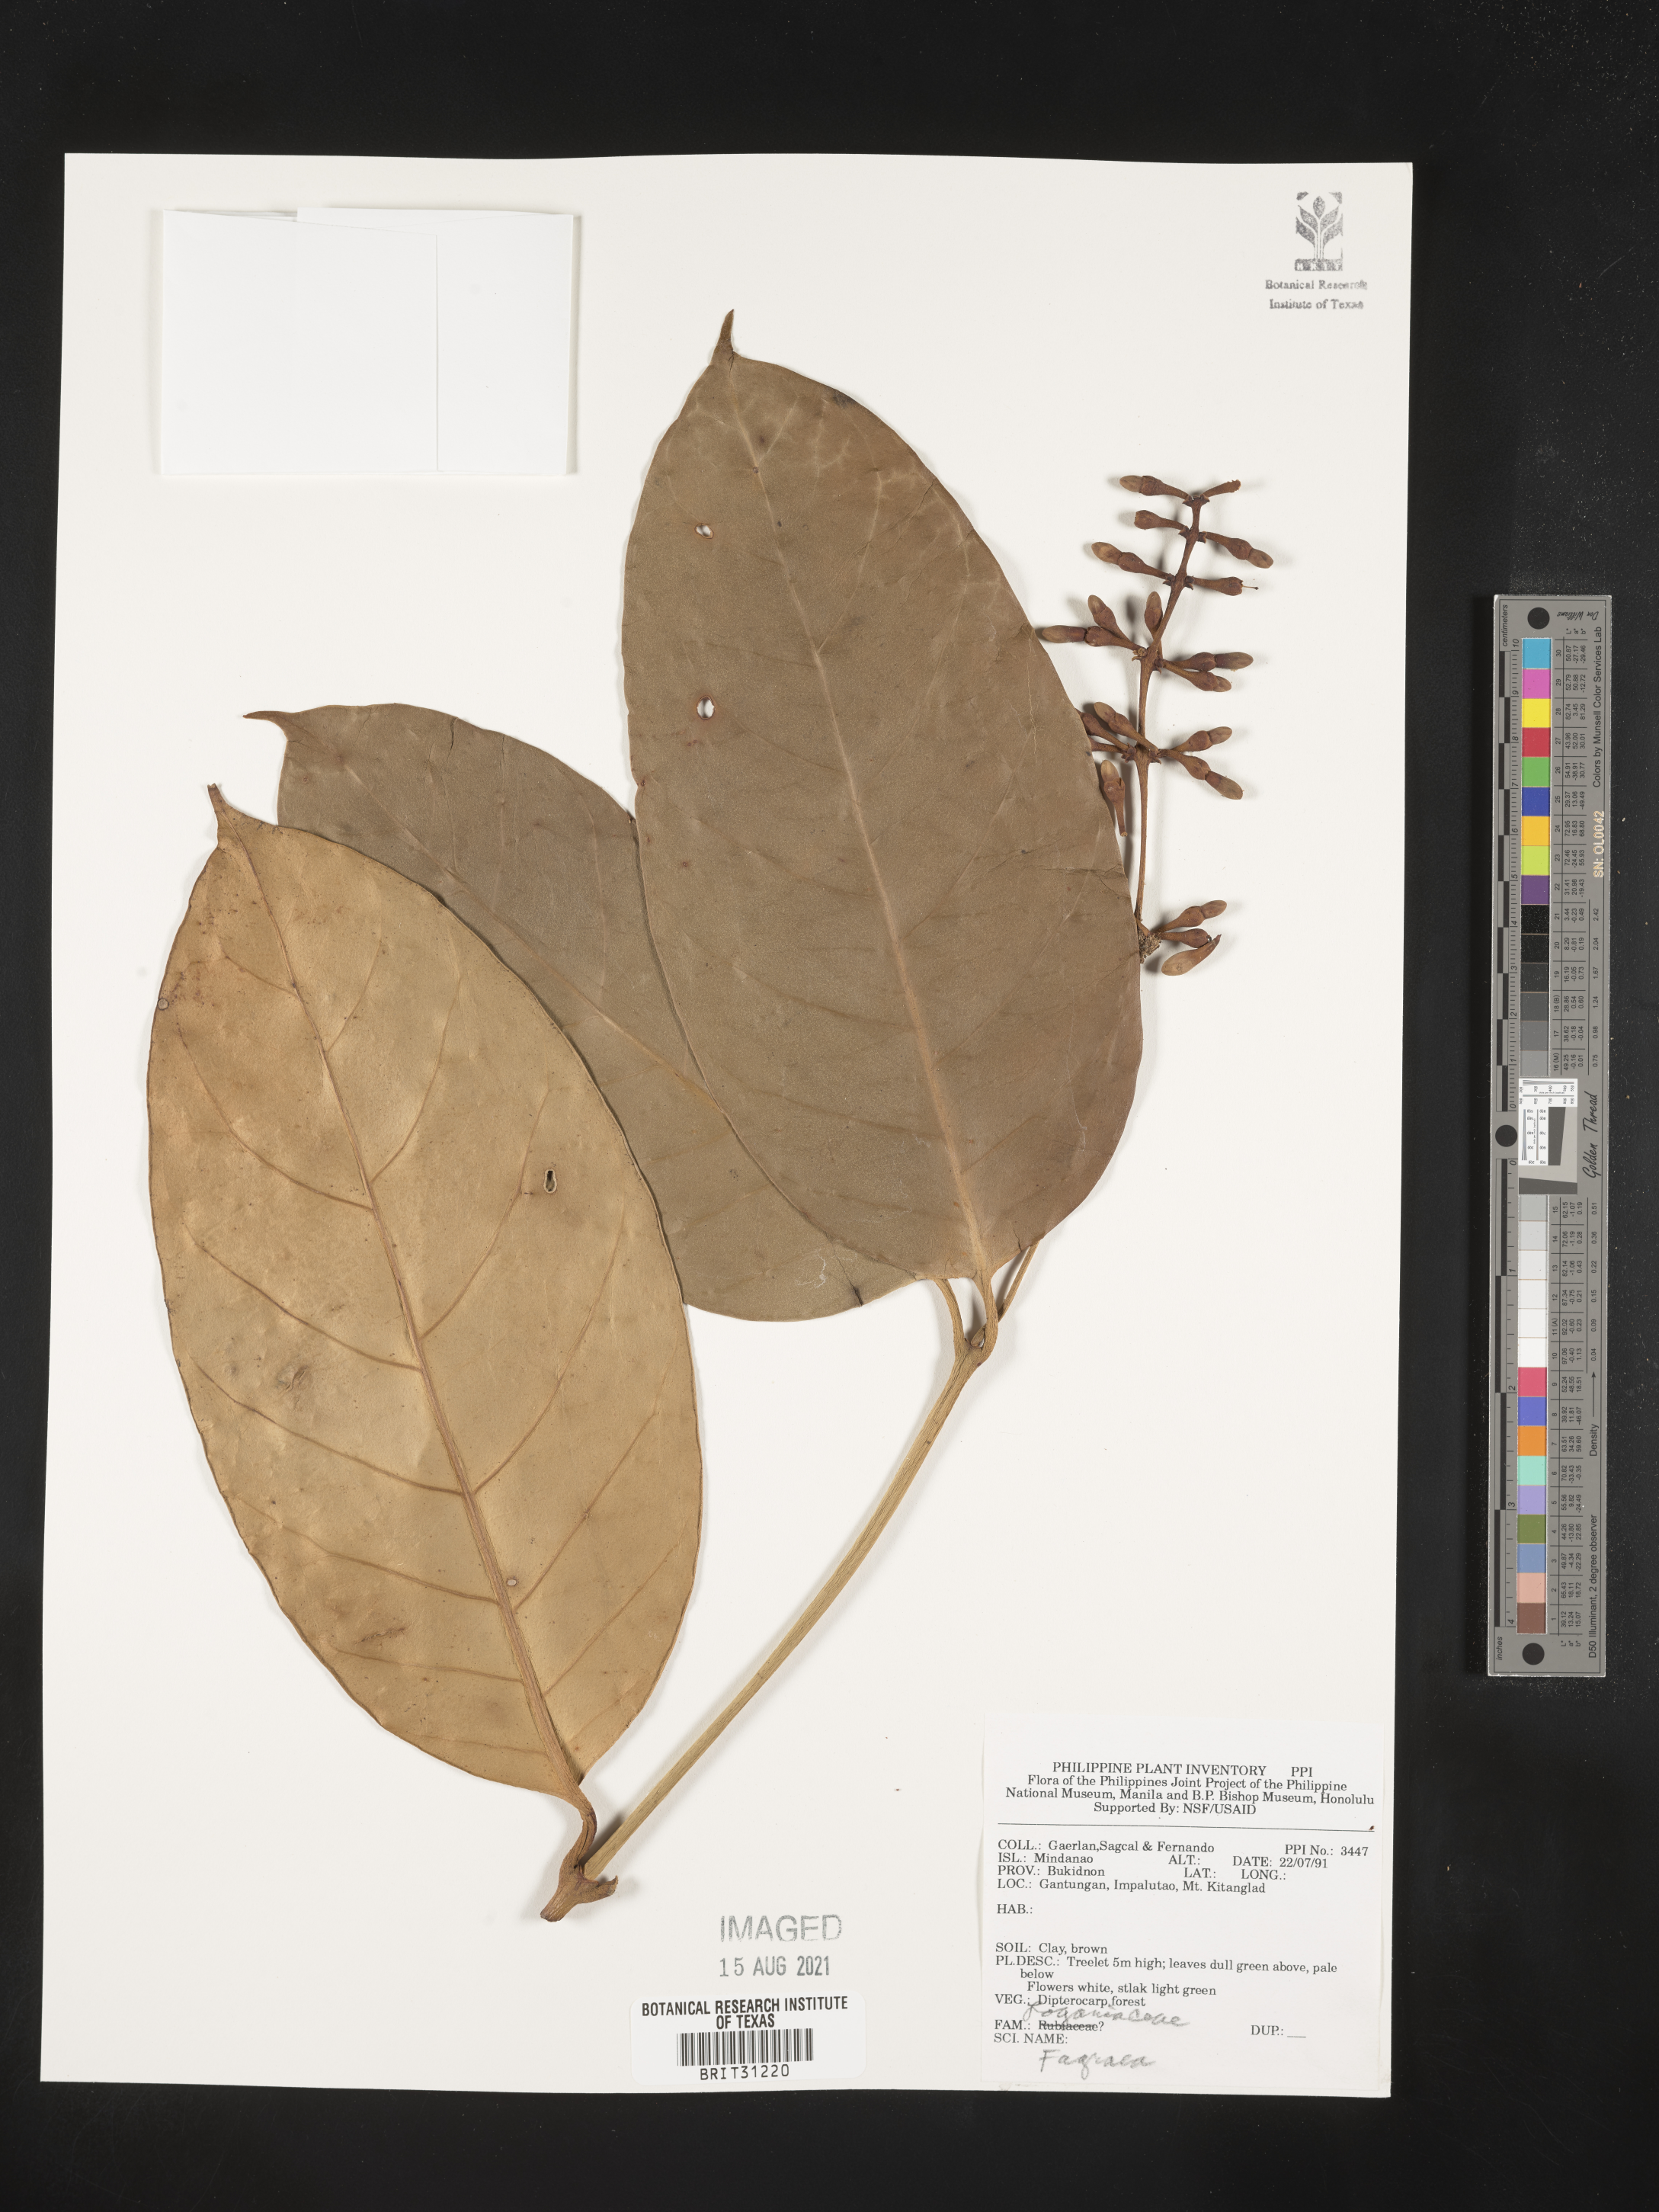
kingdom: Plantae
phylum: Tracheophyta
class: Magnoliopsida
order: Gentianales
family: Gentianaceae
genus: Fagraea
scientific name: Fagraea
